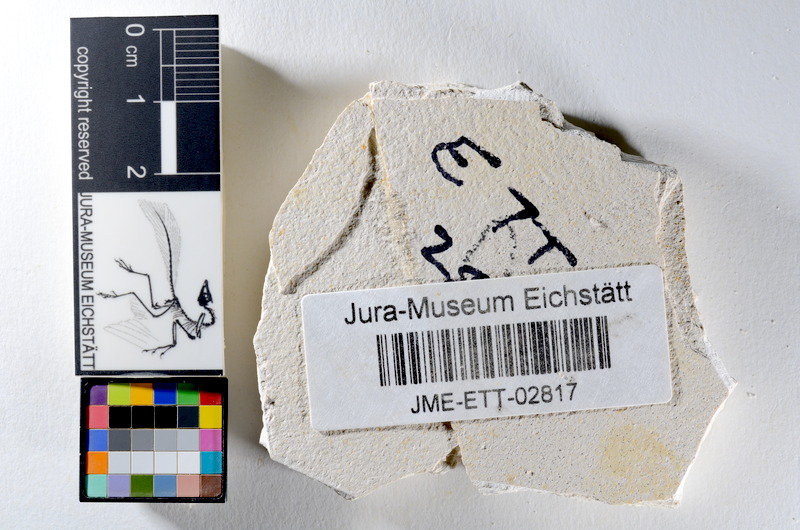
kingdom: Animalia
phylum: Chordata
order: Salmoniformes
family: Orthogonikleithridae
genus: Orthogonikleithrus
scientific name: Orthogonikleithrus hoelli
